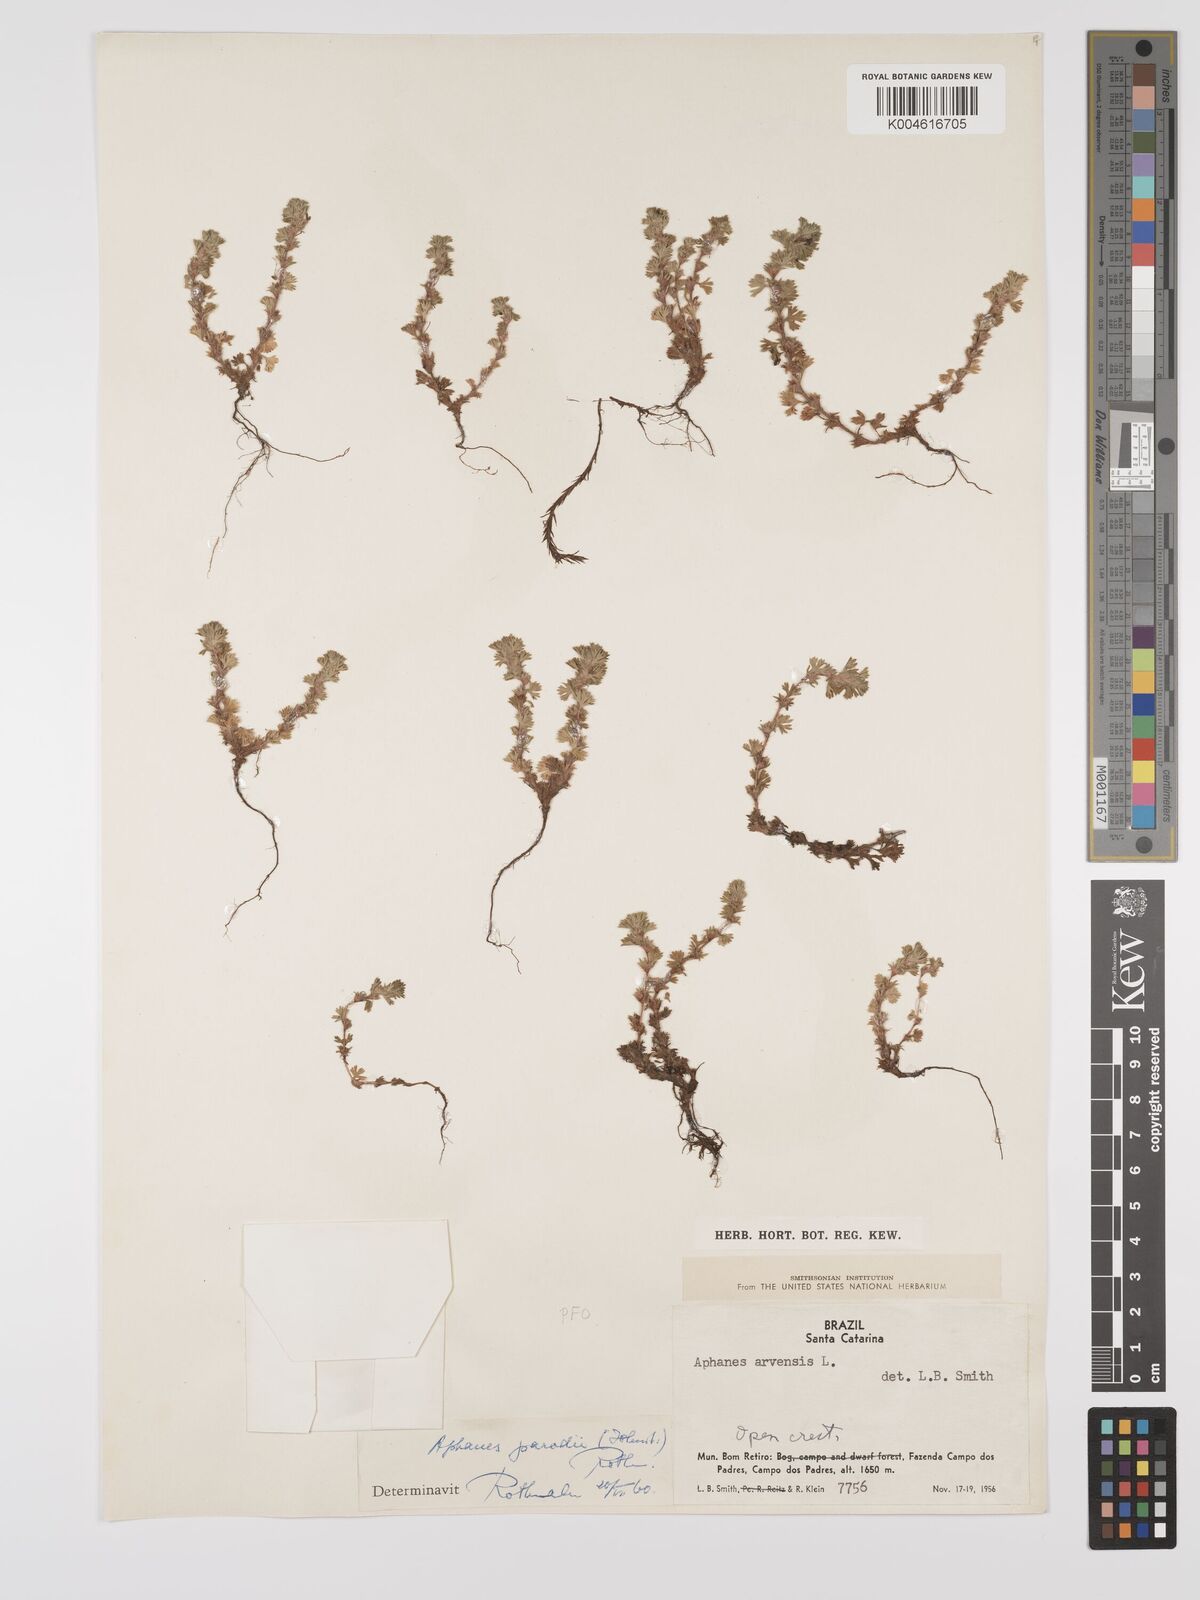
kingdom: Plantae
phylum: Tracheophyta
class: Magnoliopsida
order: Rosales
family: Rosaceae
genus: Aphanes
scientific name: Aphanes arvensis
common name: Parsley-piert
